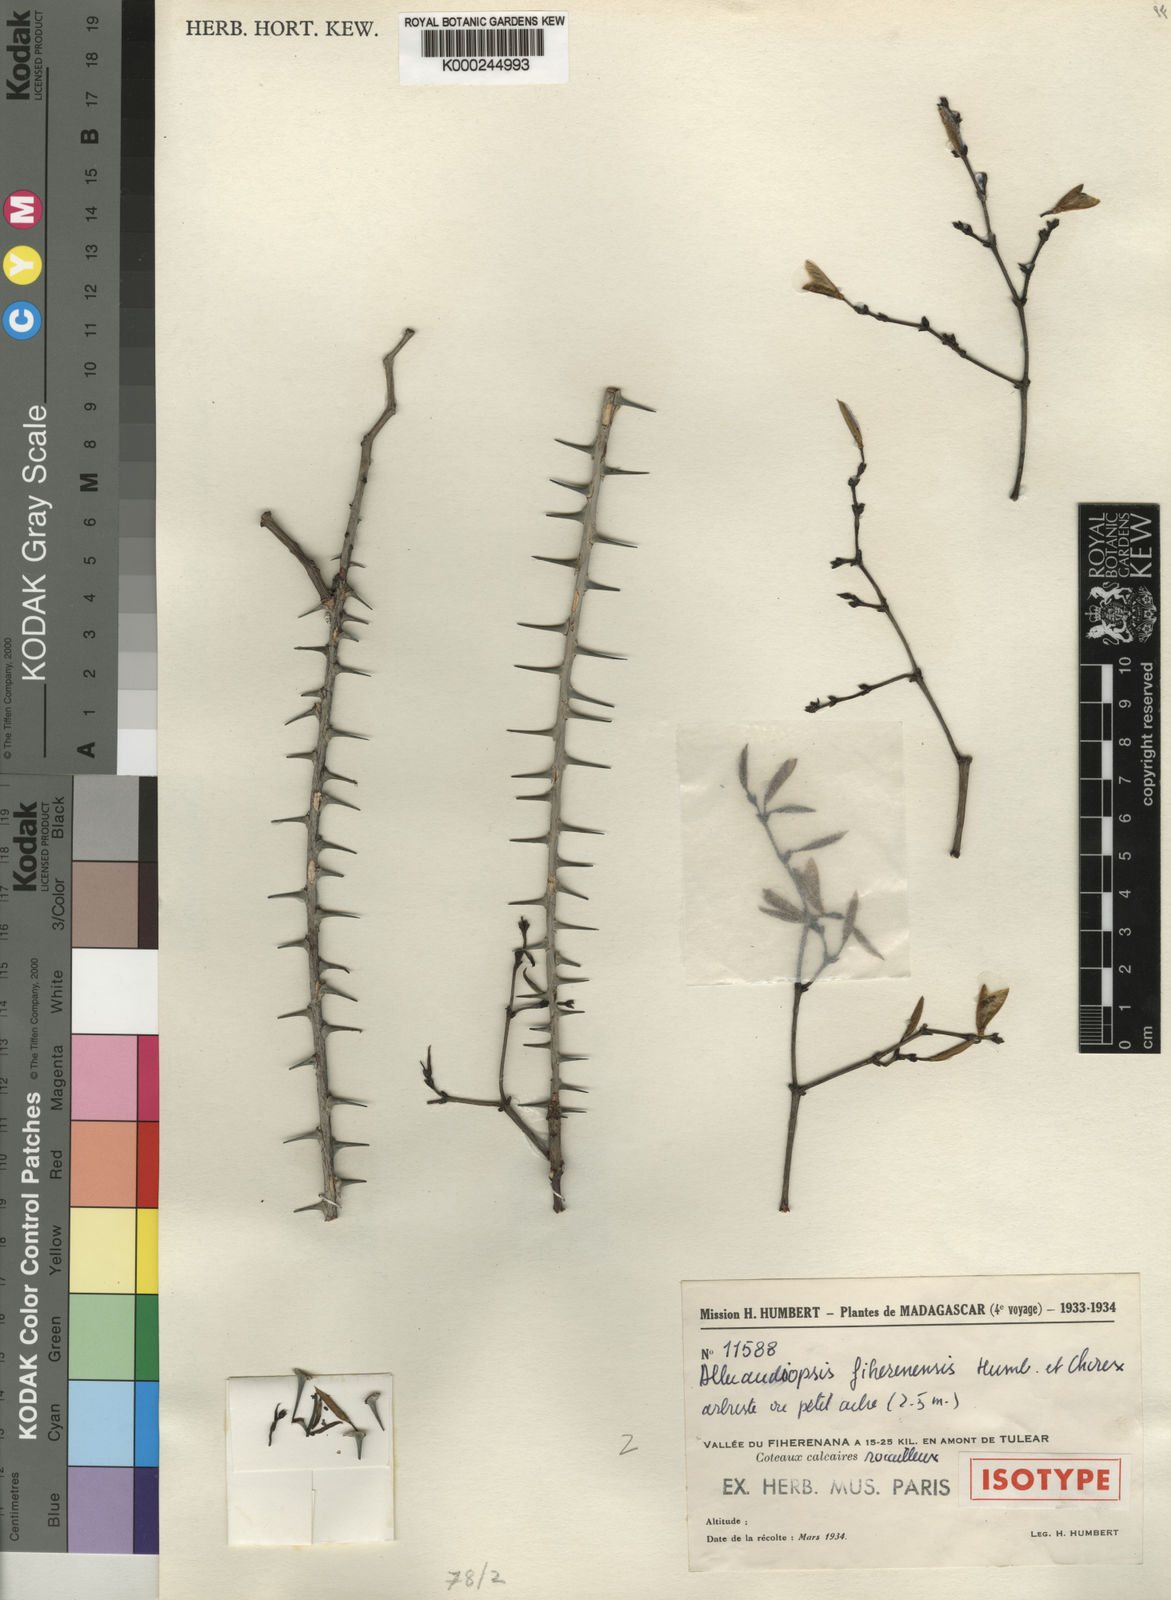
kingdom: Plantae
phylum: Tracheophyta
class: Magnoliopsida
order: Caryophyllales
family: Didiereaceae
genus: Alluaudiopsis
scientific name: Alluaudiopsis fiherenensis
